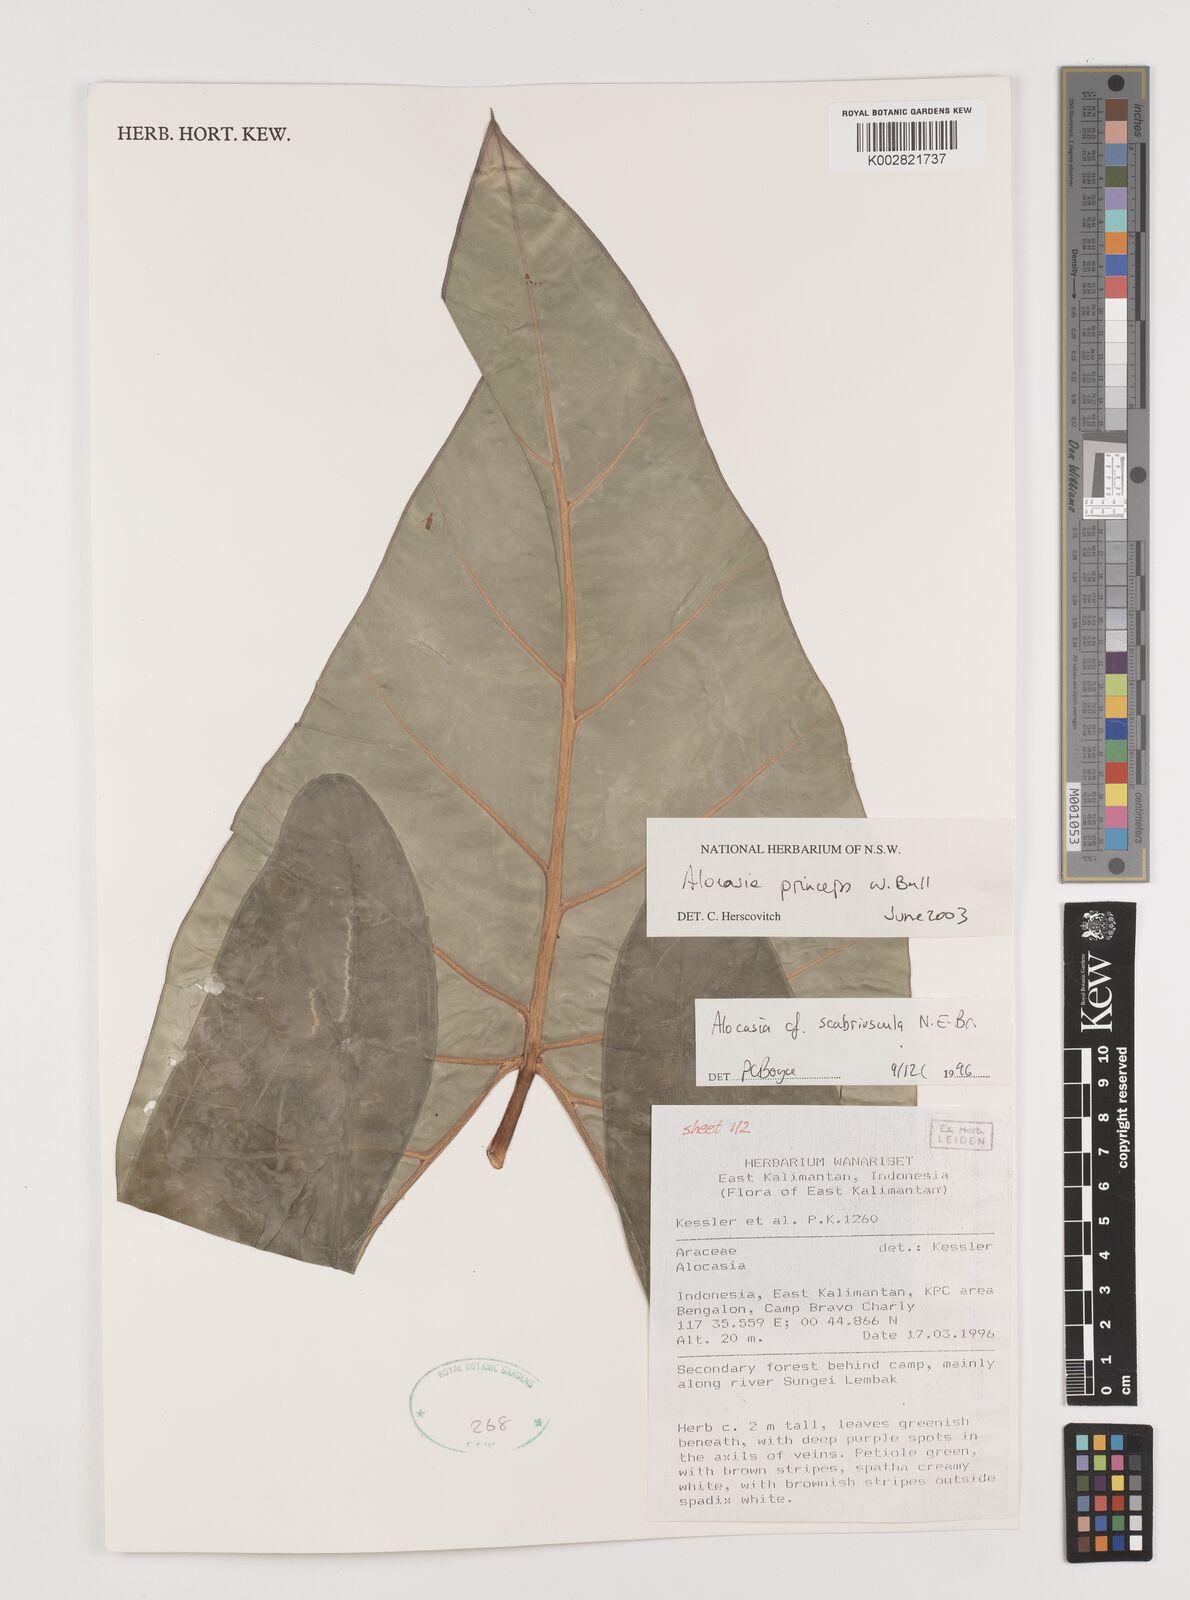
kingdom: Plantae
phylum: Tracheophyta
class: Liliopsida
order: Alismatales
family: Araceae
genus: Alocasia
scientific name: Alocasia princeps
